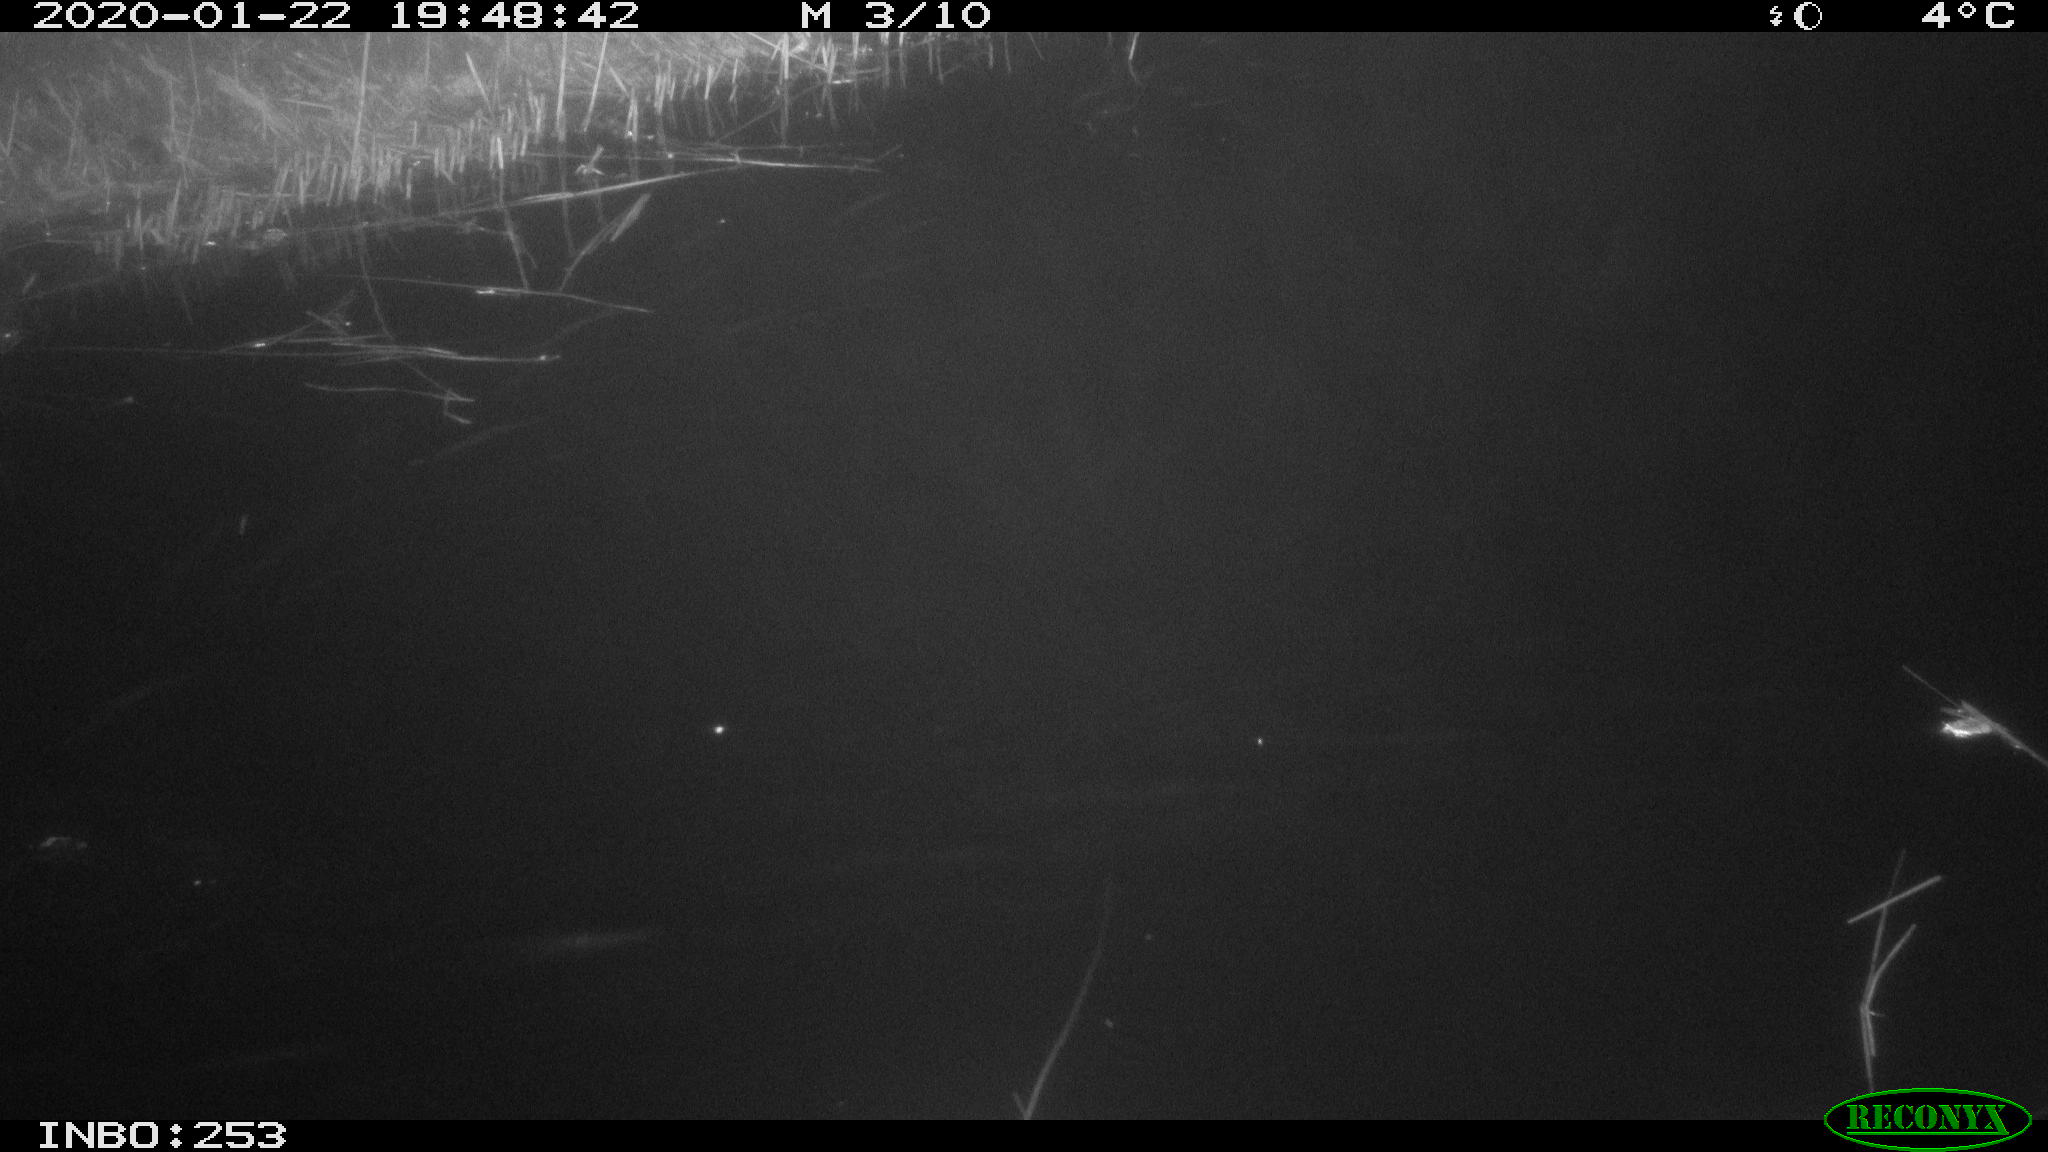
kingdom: Animalia
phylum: Chordata
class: Mammalia
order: Rodentia
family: Cricetidae
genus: Ondatra
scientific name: Ondatra zibethicus
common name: Muskrat
